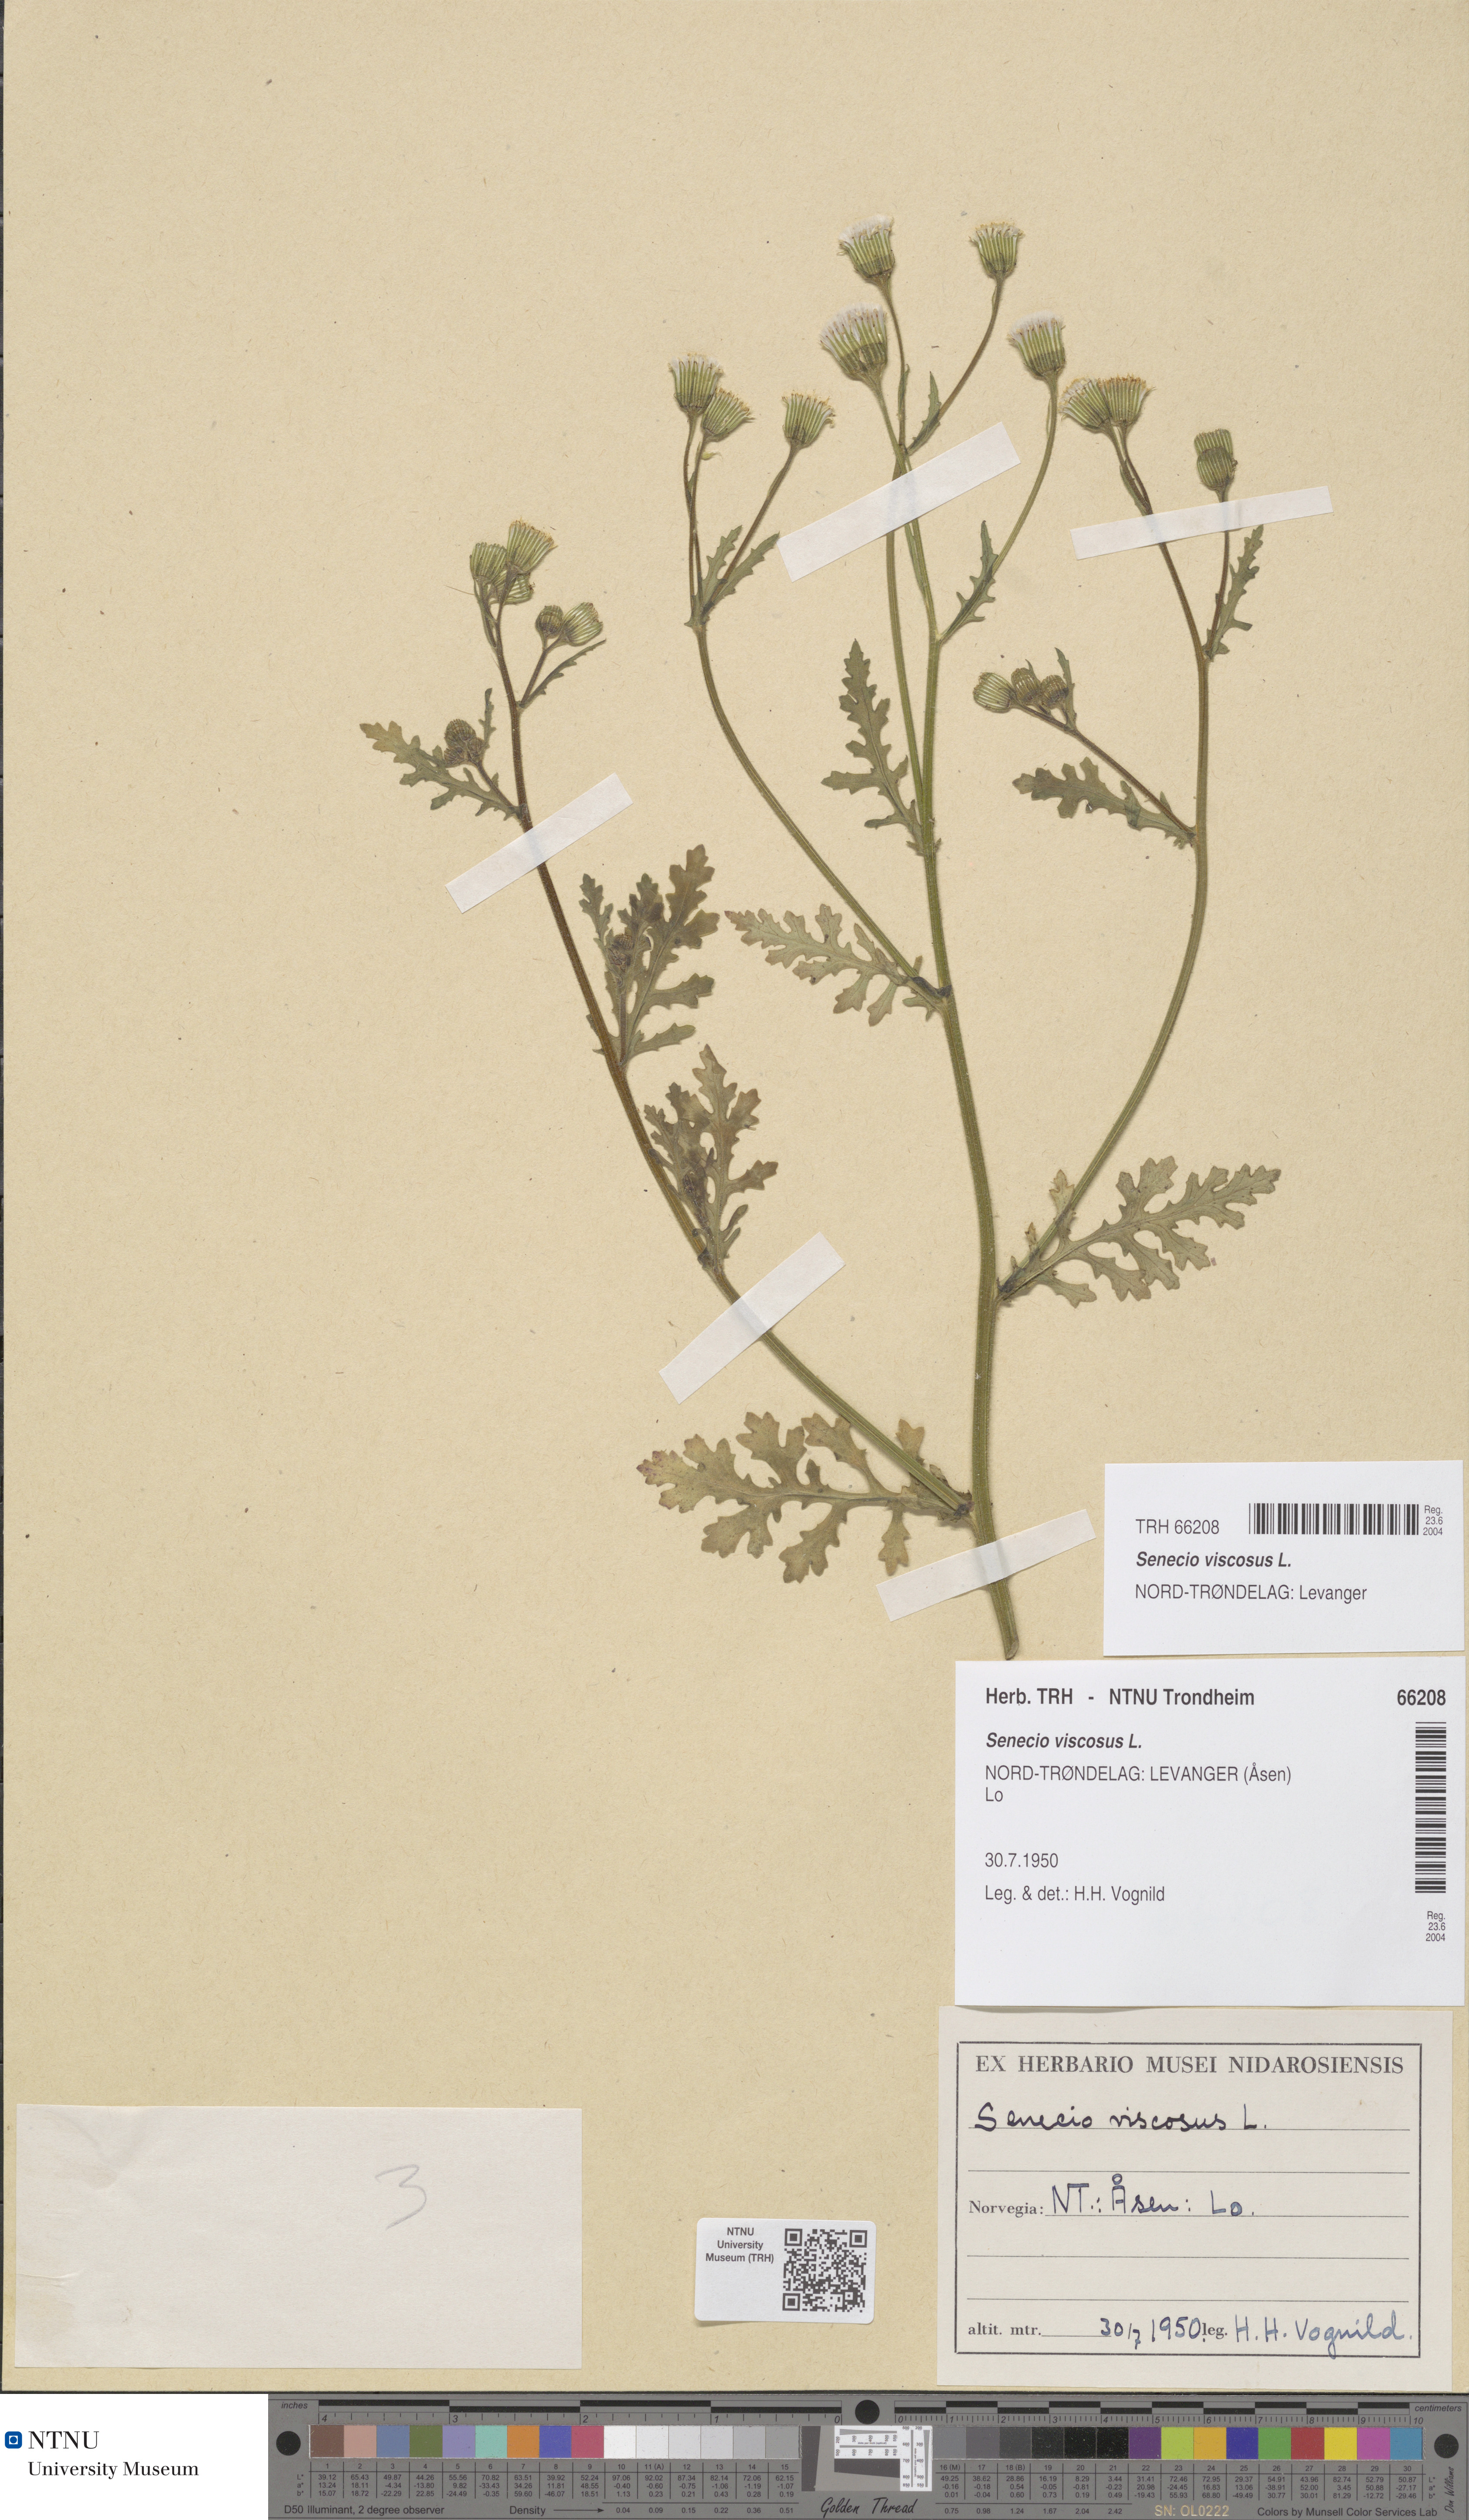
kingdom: Plantae
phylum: Tracheophyta
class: Magnoliopsida
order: Asterales
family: Asteraceae
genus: Senecio
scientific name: Senecio viscosus
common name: Sticky groundsel
